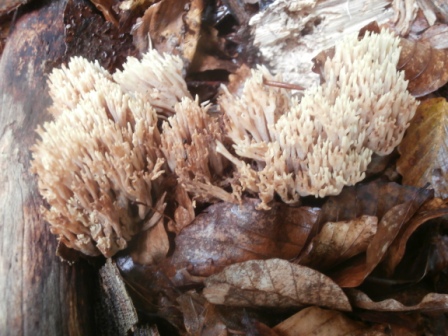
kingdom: Fungi
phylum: Basidiomycota
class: Agaricomycetes
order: Gomphales
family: Gomphaceae
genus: Ramaria
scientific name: Ramaria stricta
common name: rank koralsvamp
